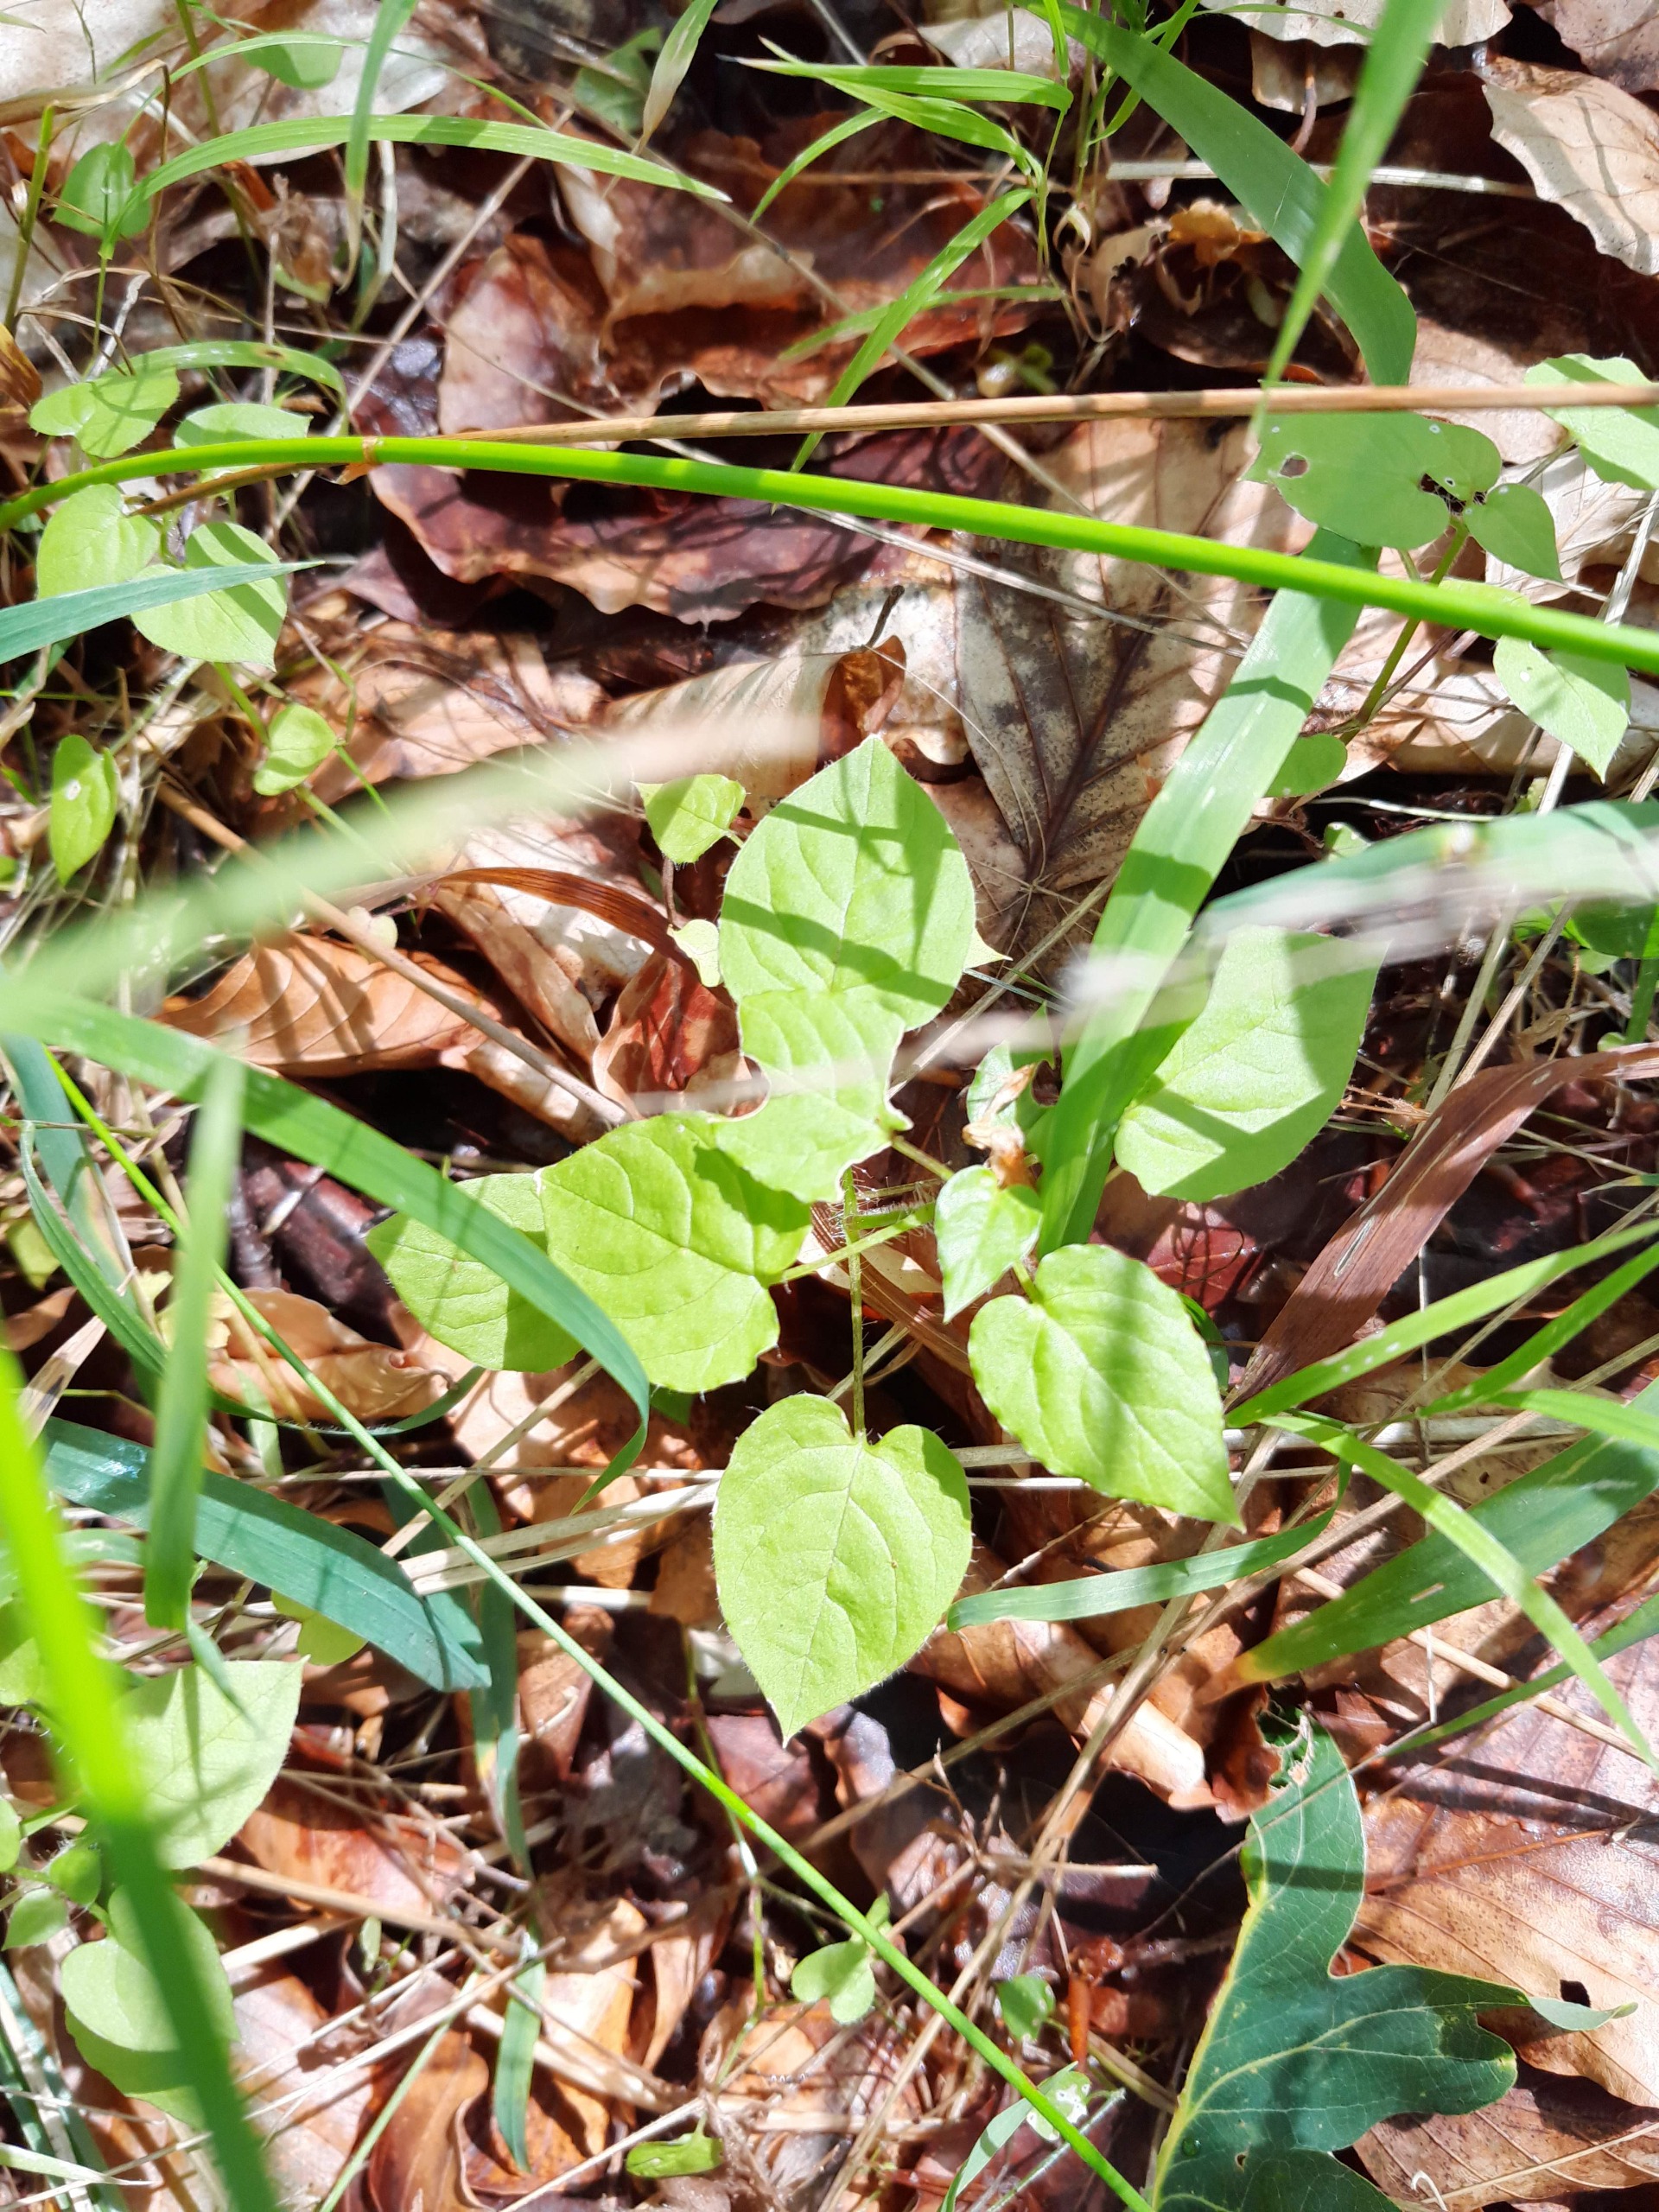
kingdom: Plantae
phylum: Tracheophyta
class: Magnoliopsida
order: Caryophyllales
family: Caryophyllaceae
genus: Stellaria
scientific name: Stellaria nemorum
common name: Lund-fladstjerne
